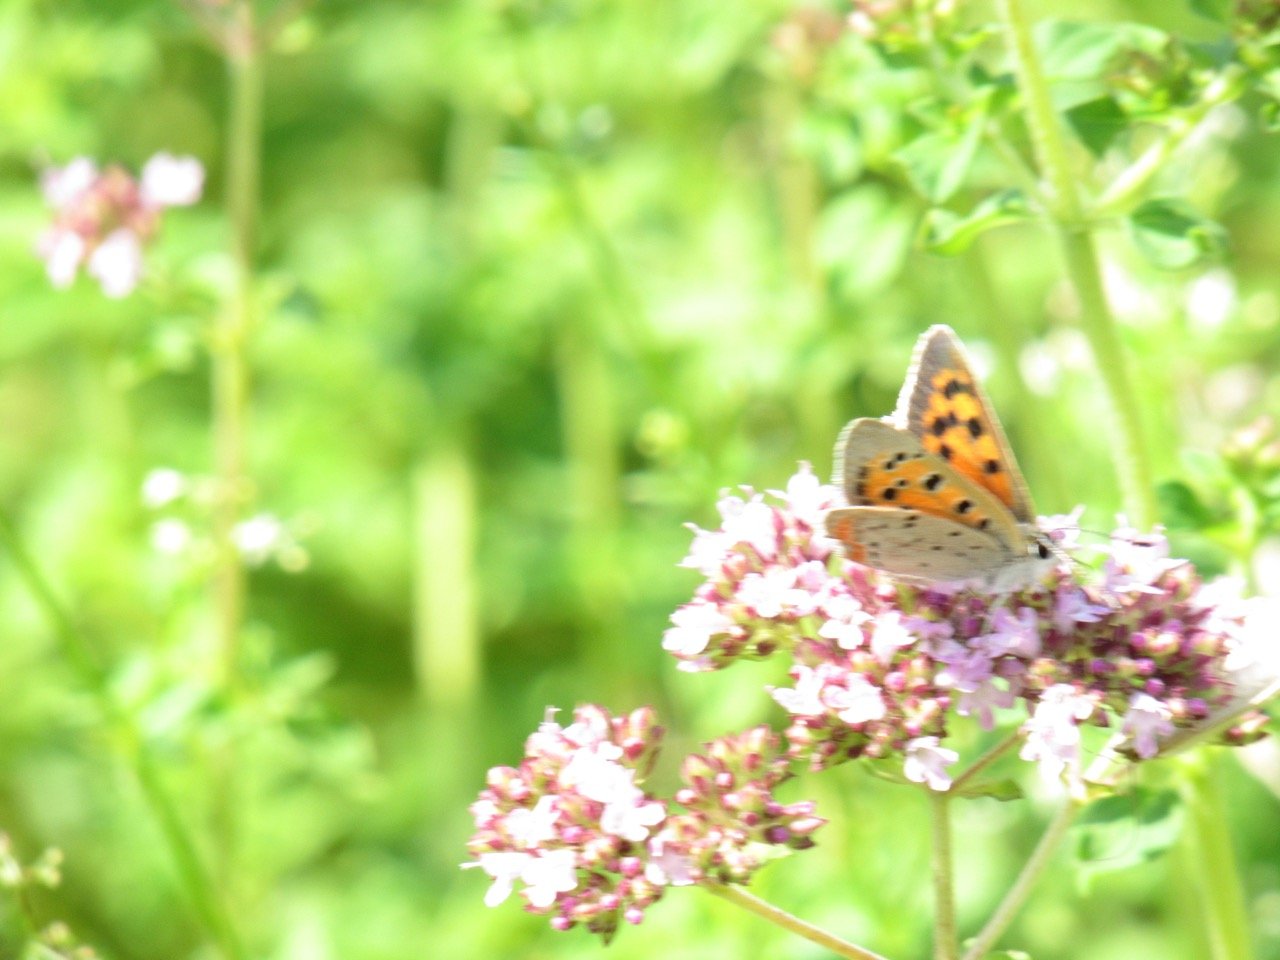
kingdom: Animalia
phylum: Arthropoda
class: Insecta
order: Lepidoptera
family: Lycaenidae
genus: Lycaena
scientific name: Lycaena phlaeas
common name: American Copper
